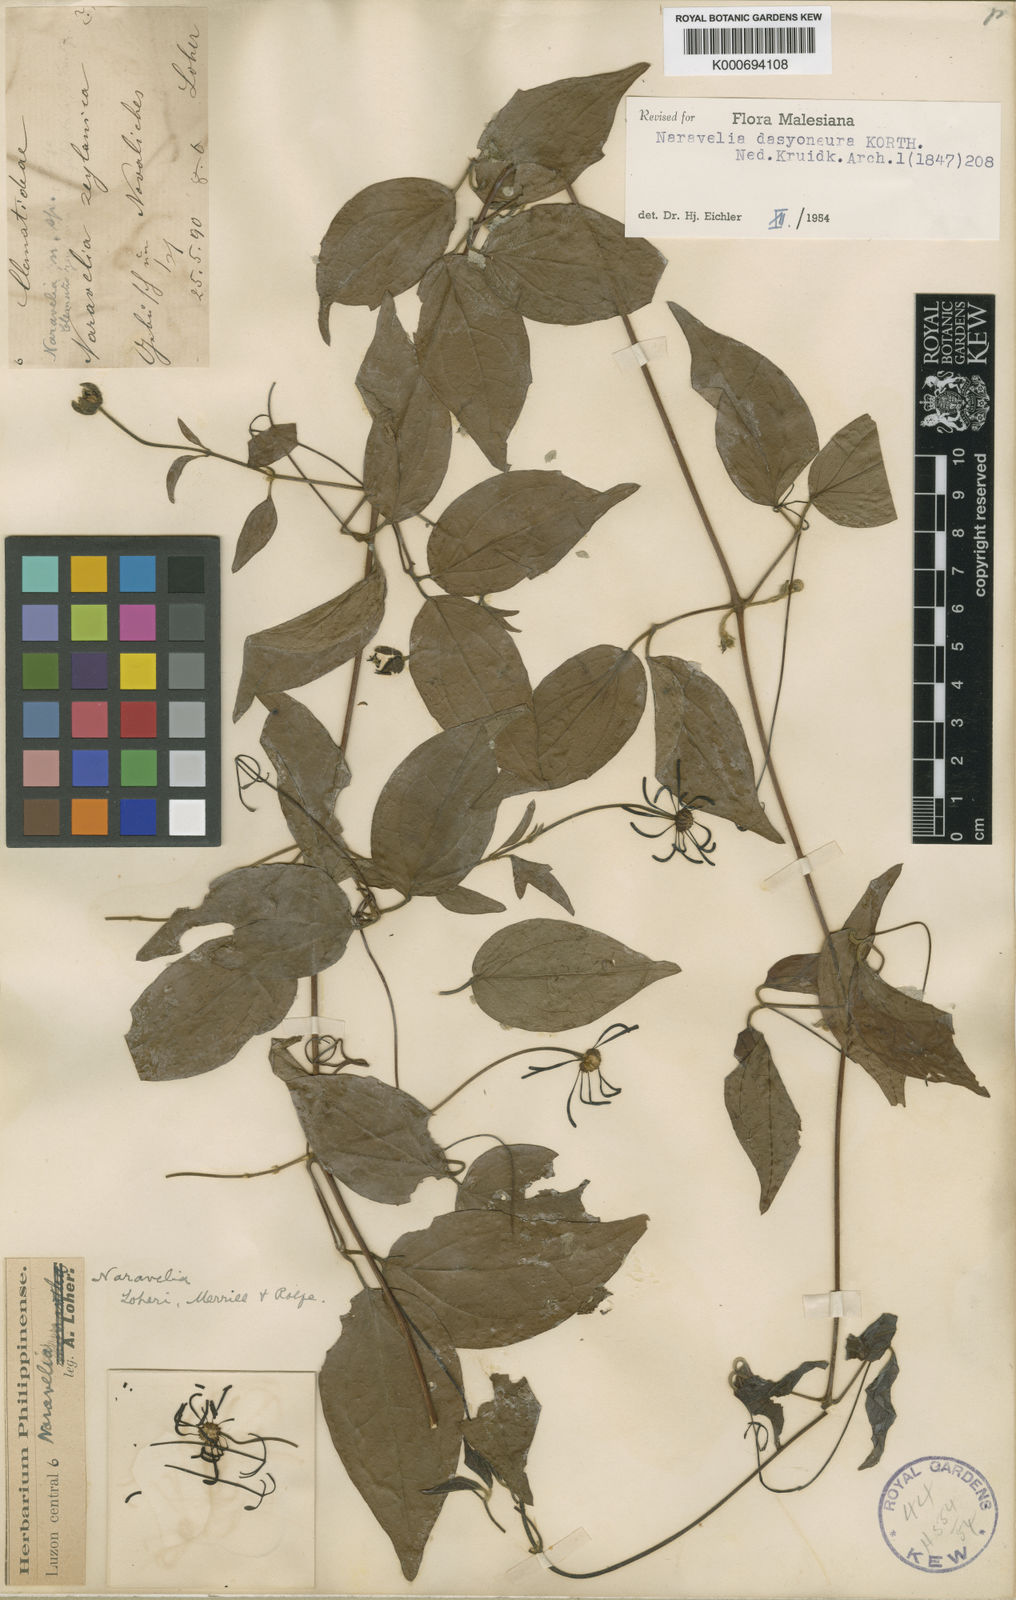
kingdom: Plantae
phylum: Tracheophyta
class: Magnoliopsida
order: Ranunculales
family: Ranunculaceae
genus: Clematis
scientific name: Clematis dasyoneura
